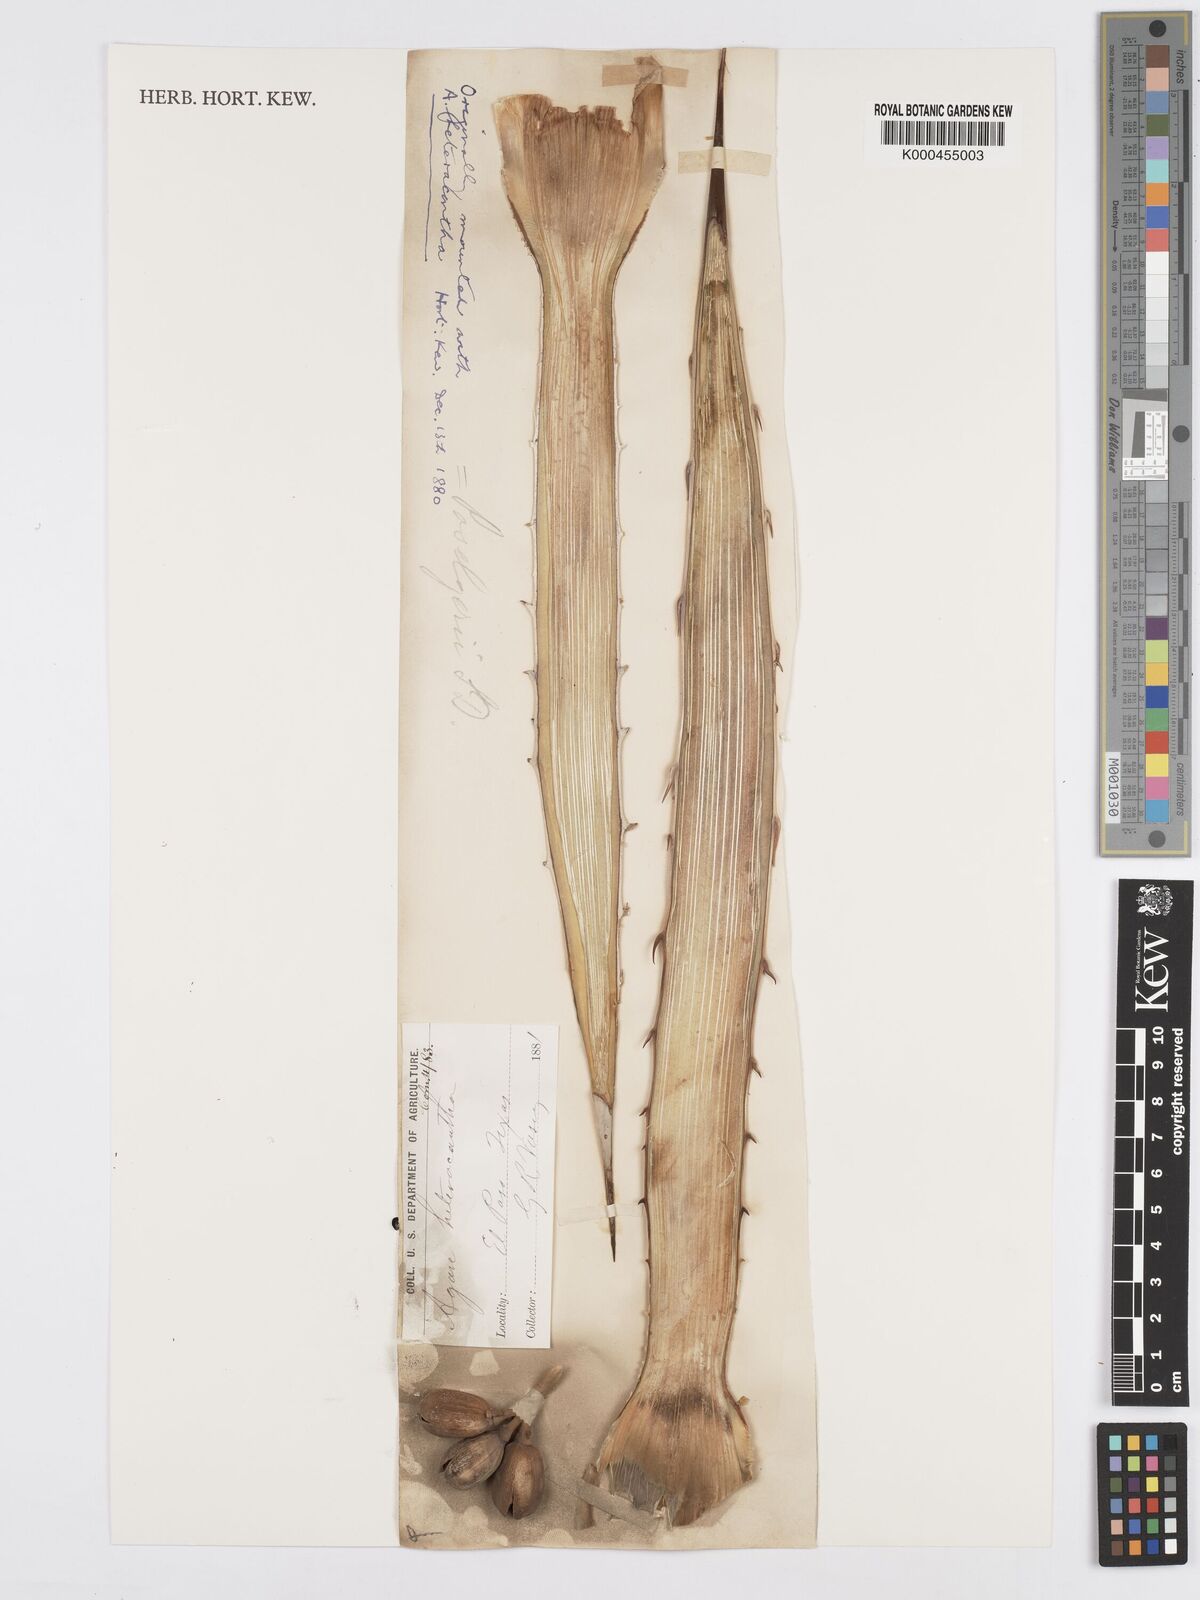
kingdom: Plantae
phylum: Tracheophyta
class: Liliopsida
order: Asparagales
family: Asparagaceae
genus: Agave
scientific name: Agave lechuguilla
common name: Lecheguilla agave
